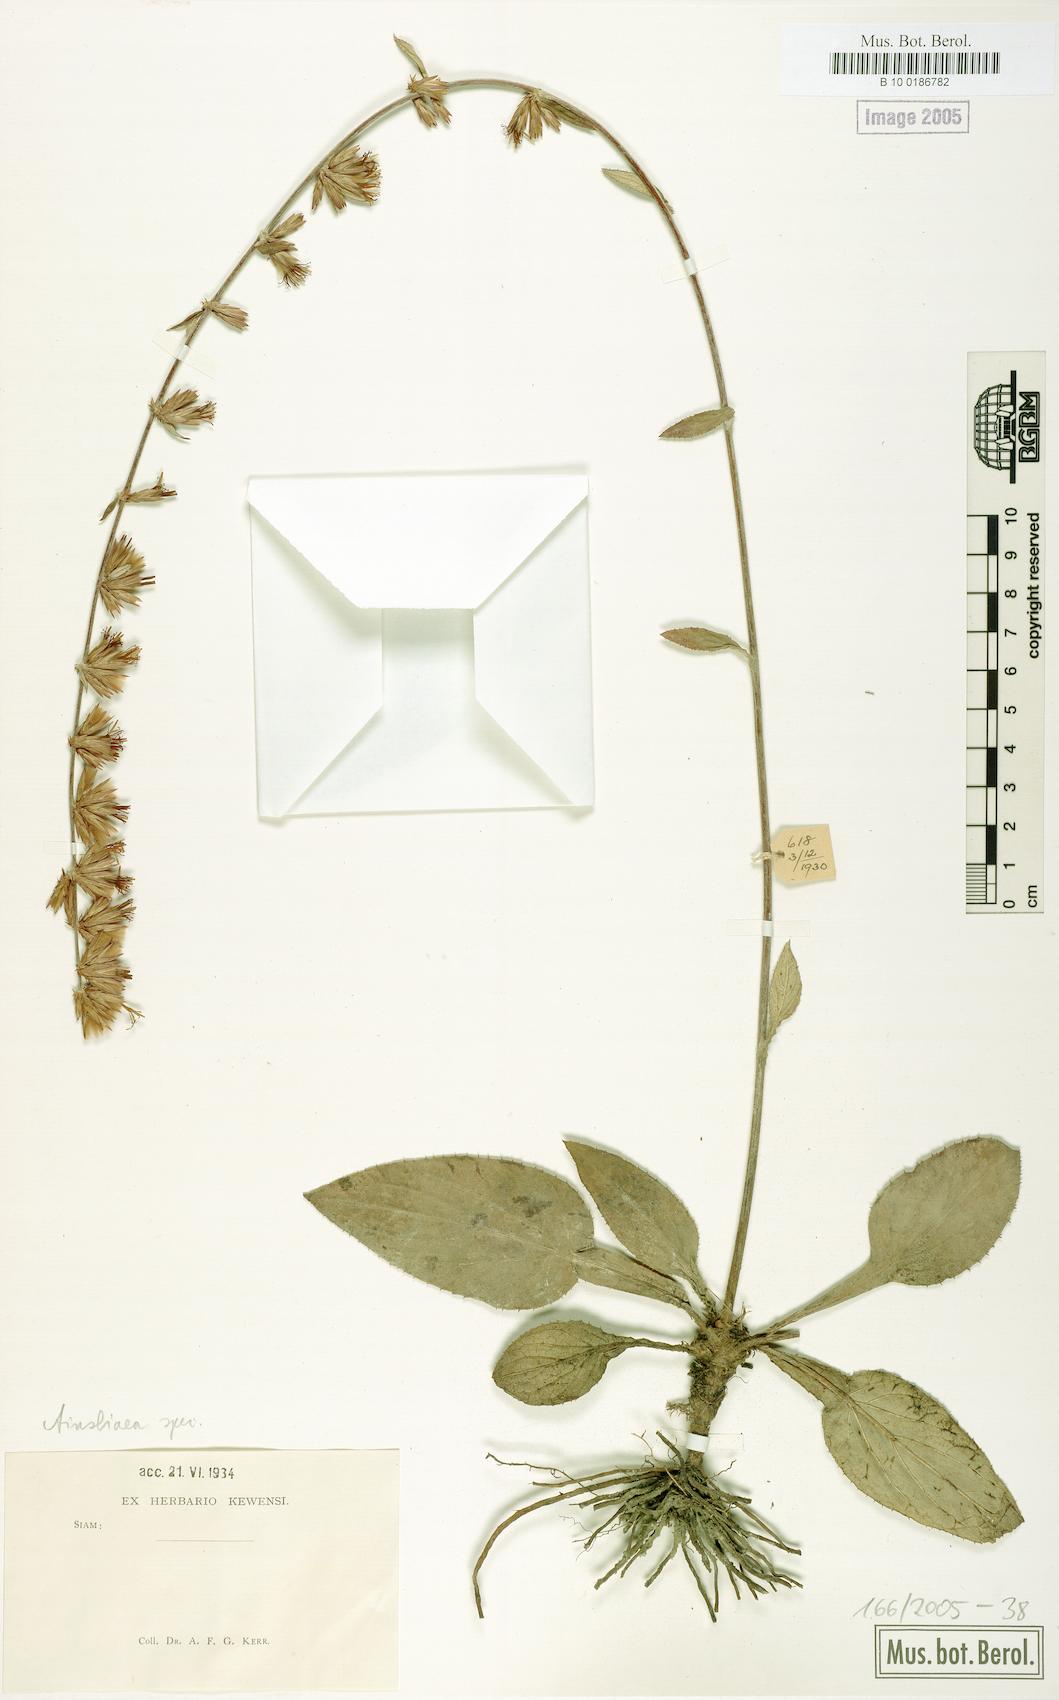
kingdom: Plantae
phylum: Tracheophyta
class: Magnoliopsida
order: Asterales
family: Asteraceae
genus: Ainsliaea
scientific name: Ainsliaea
